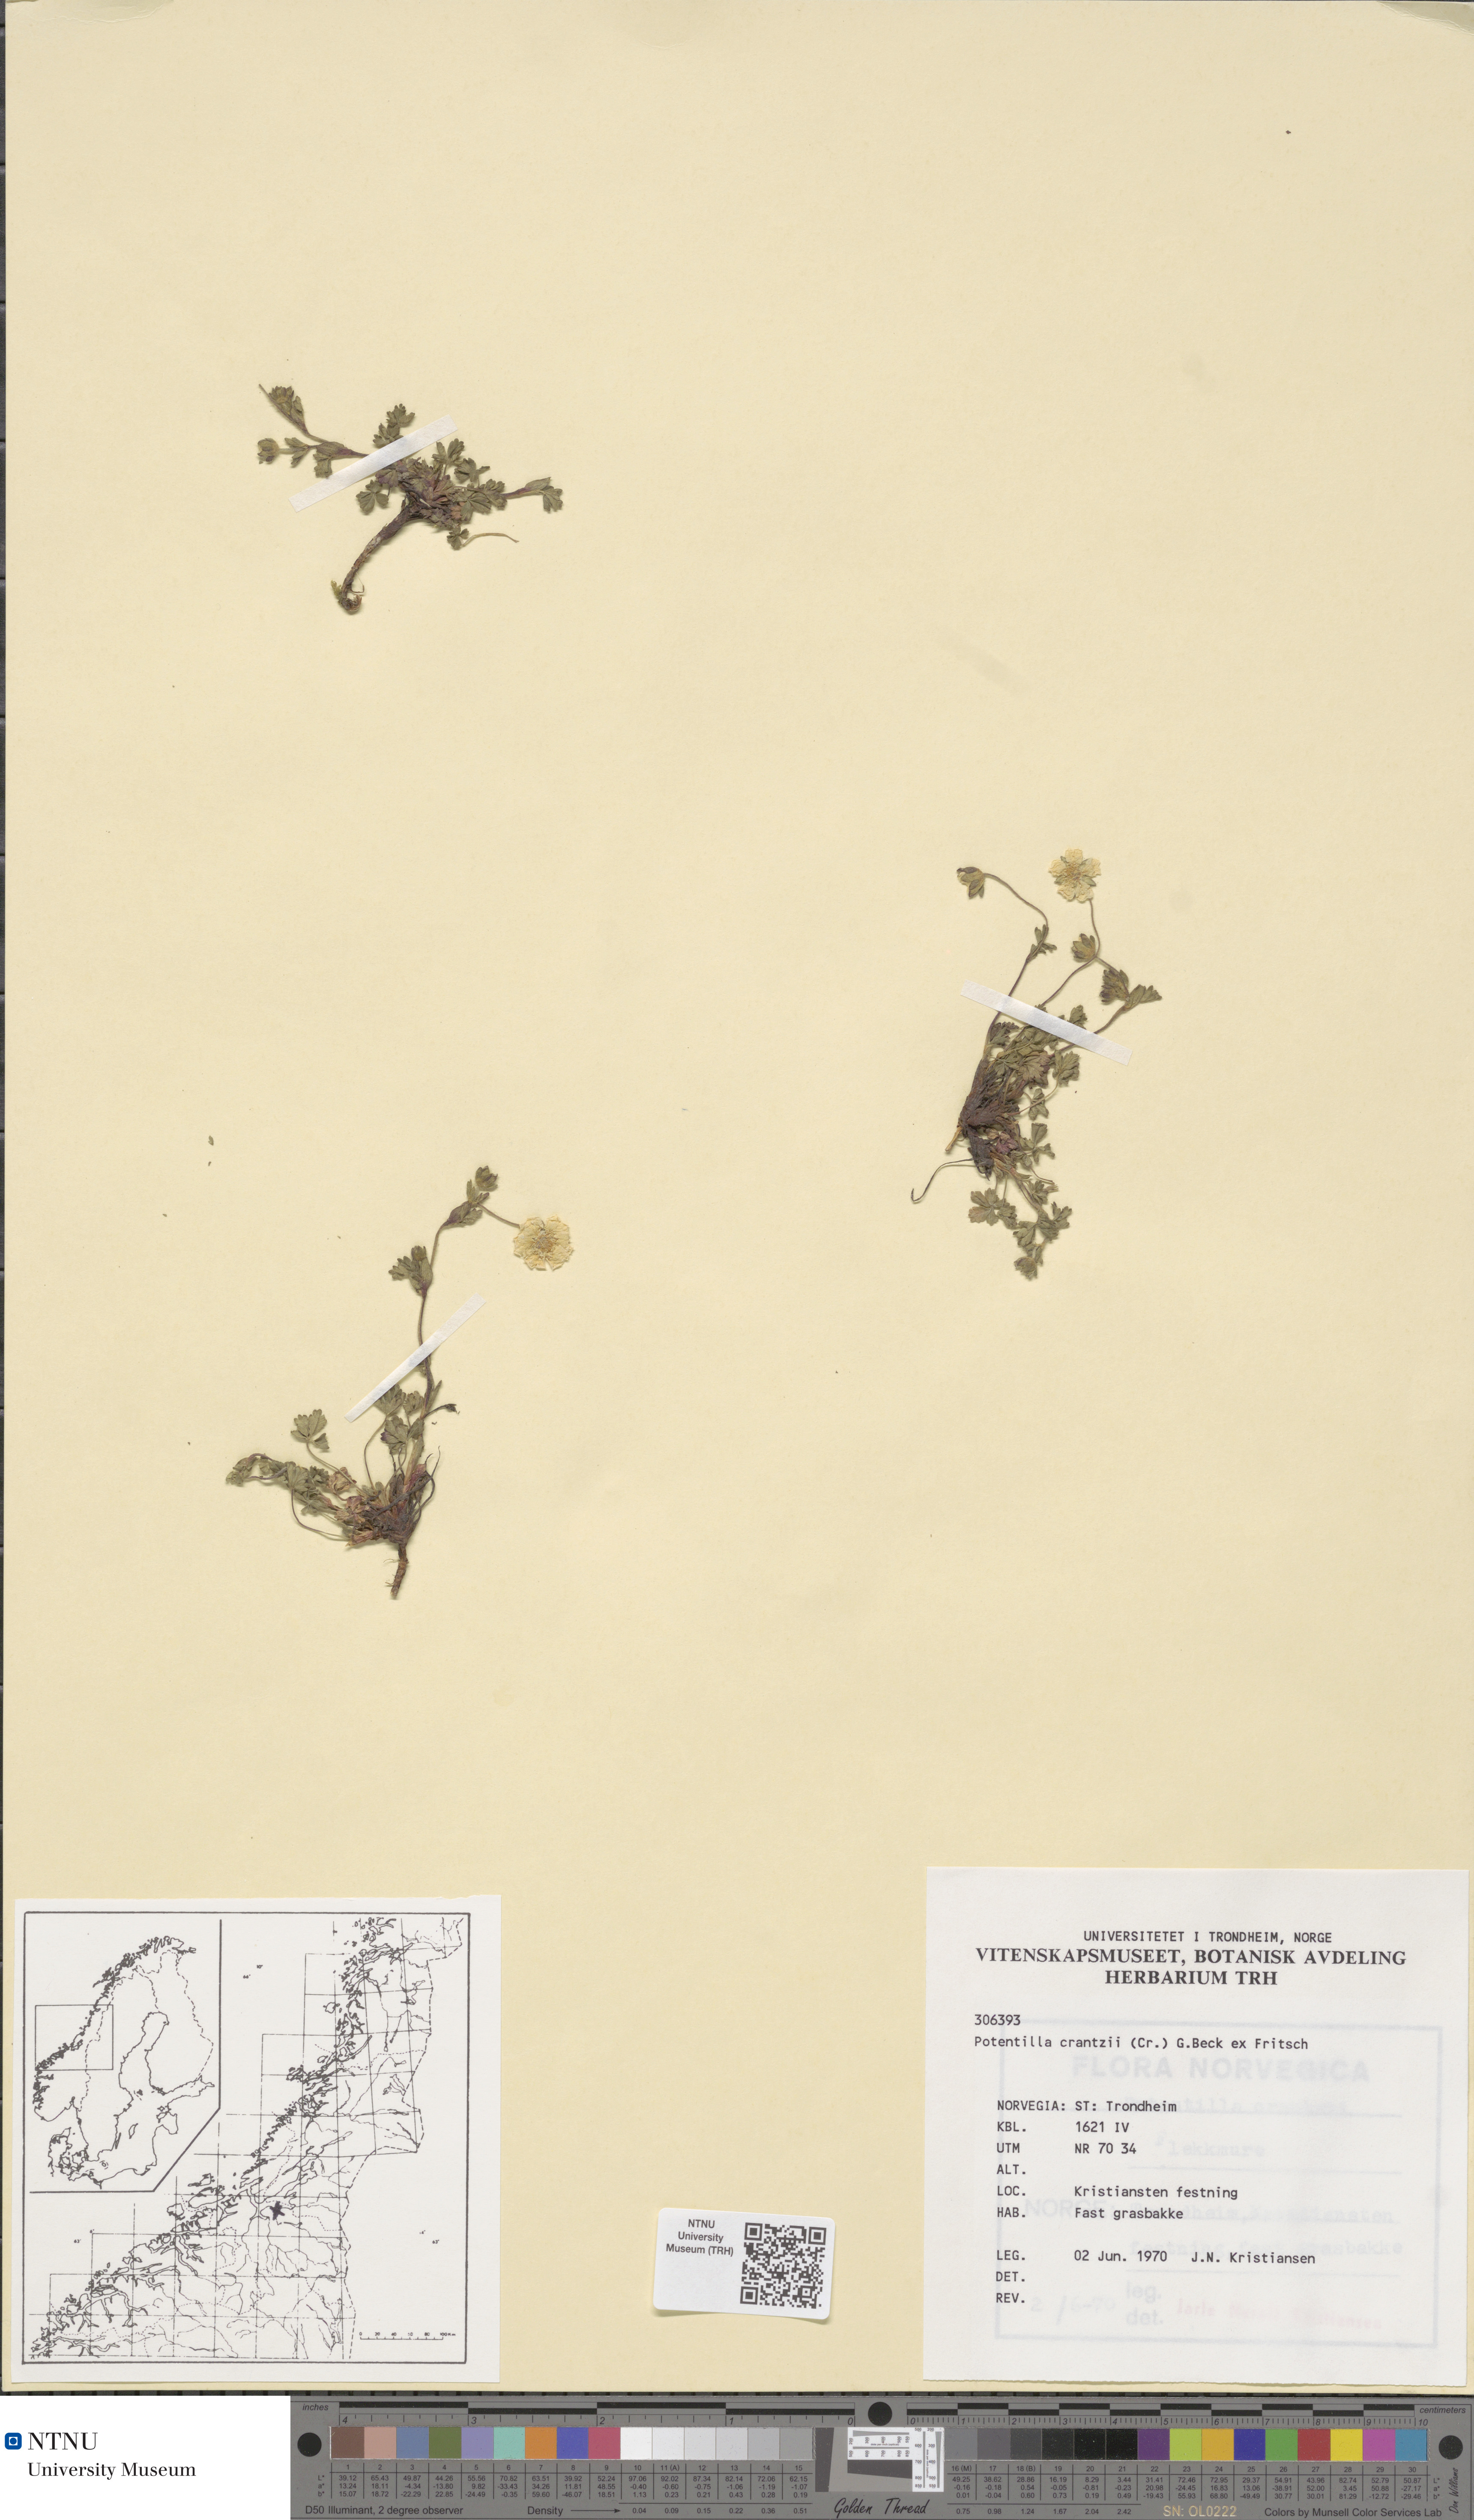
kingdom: Plantae
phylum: Tracheophyta
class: Magnoliopsida
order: Rosales
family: Rosaceae
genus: Potentilla
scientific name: Potentilla crantzii
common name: Alpine cinquefoil
